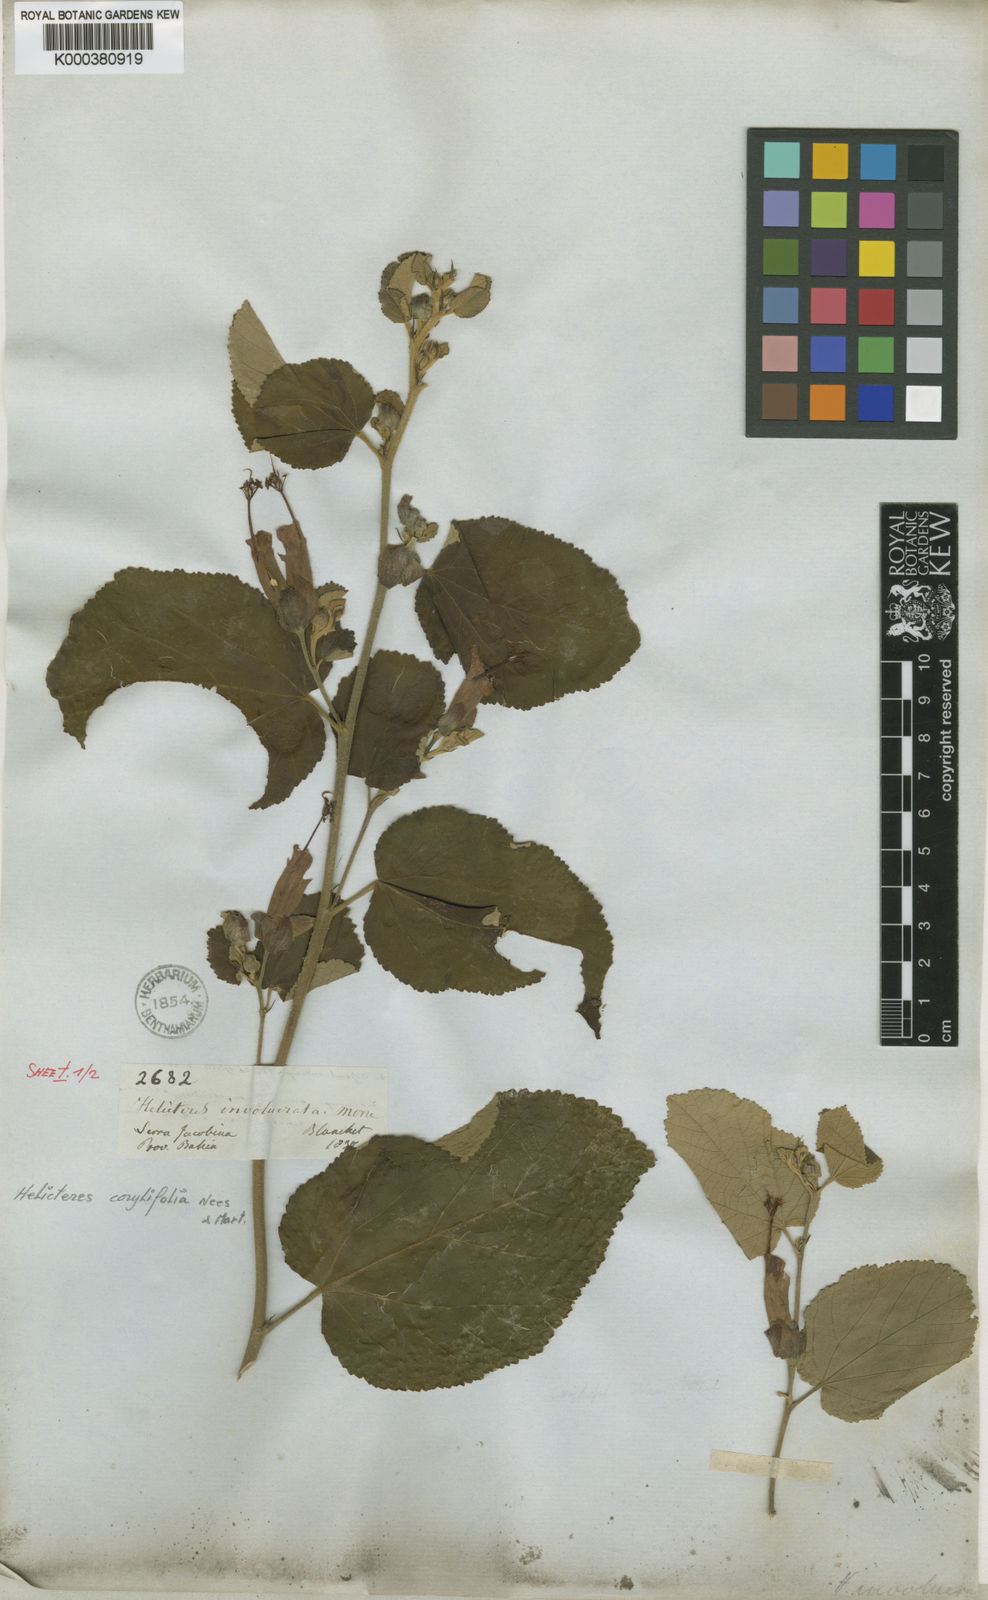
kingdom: Plantae
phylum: Tracheophyta
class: Magnoliopsida
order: Malvales
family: Malvaceae
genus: Helicteres
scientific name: Helicteres corylifolia
